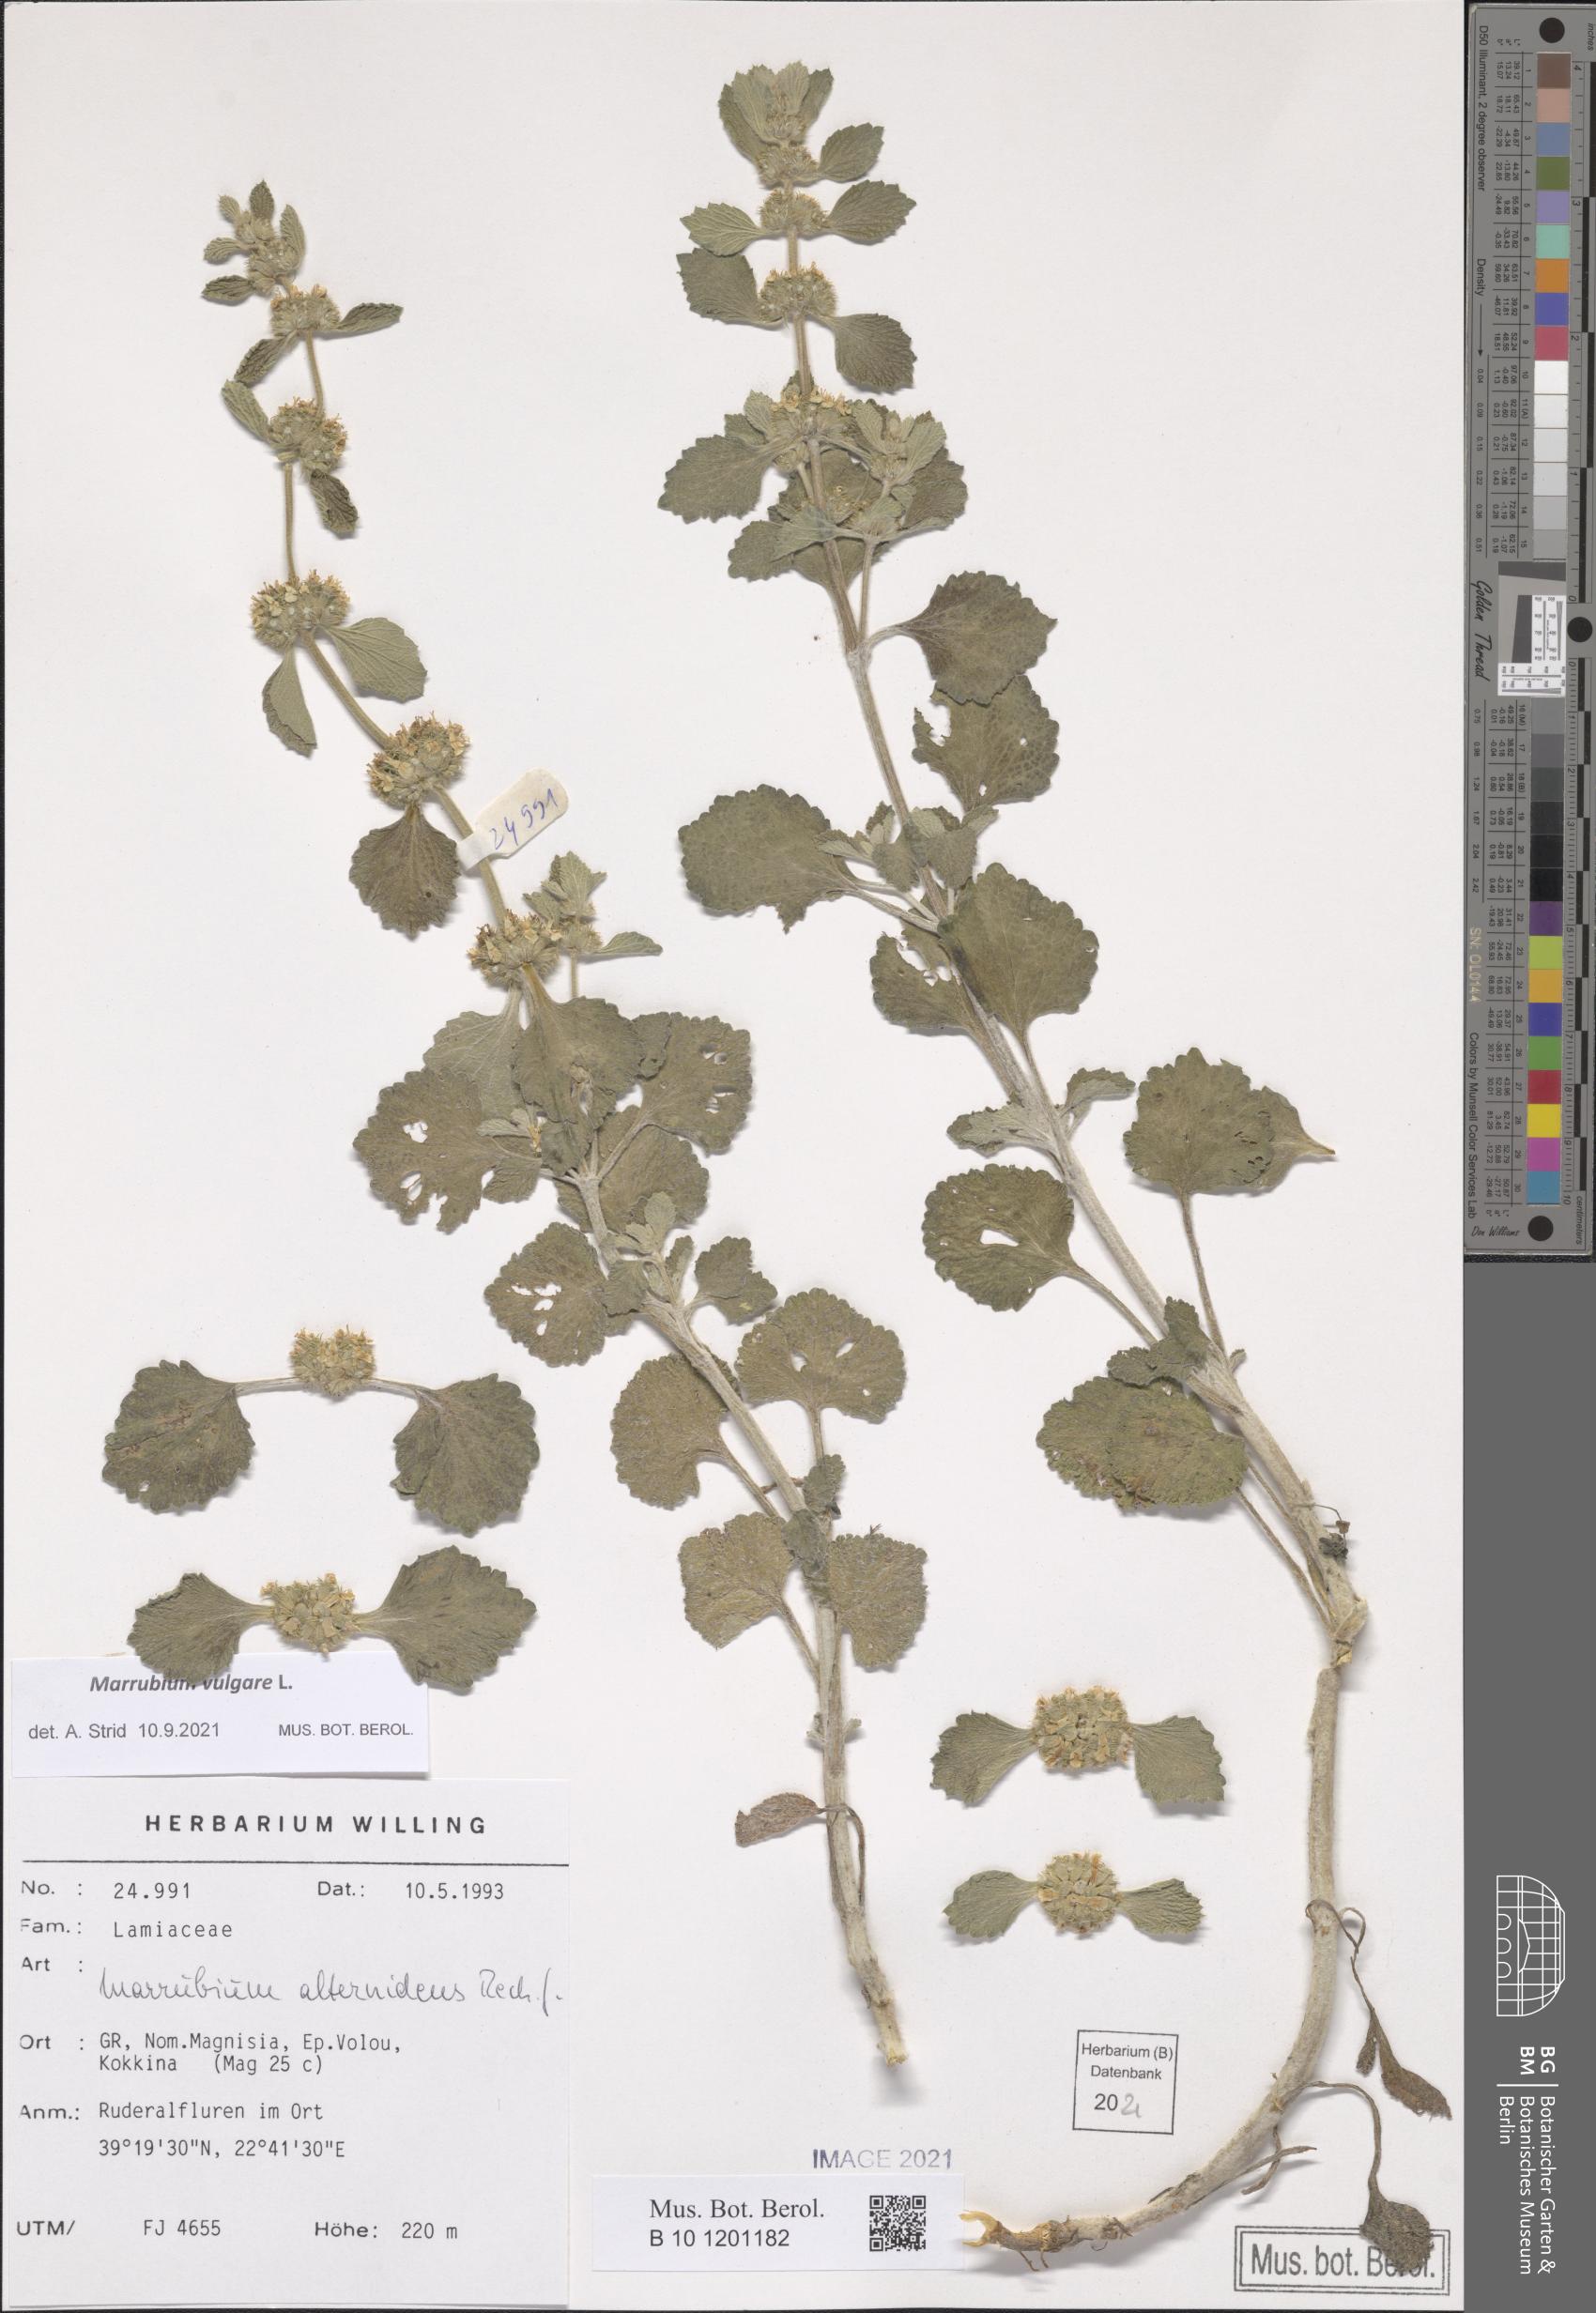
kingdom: Plantae
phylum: Tracheophyta
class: Magnoliopsida
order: Lamiales
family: Lamiaceae
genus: Marrubium
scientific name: Marrubium vulgare
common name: Horehound
